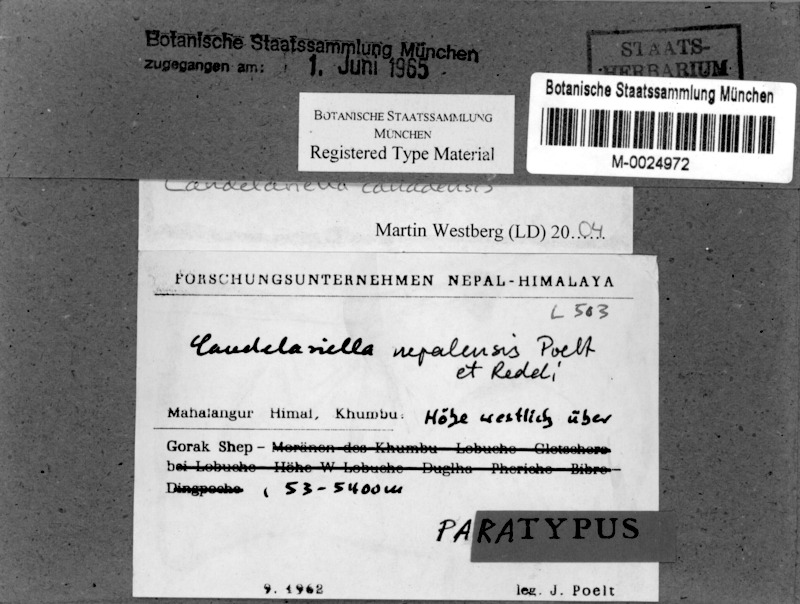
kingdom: Fungi
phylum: Ascomycota
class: Candelariomycetes
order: Candelariales
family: Candelariaceae
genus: Opeltiella
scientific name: Opeltiella canadensis
